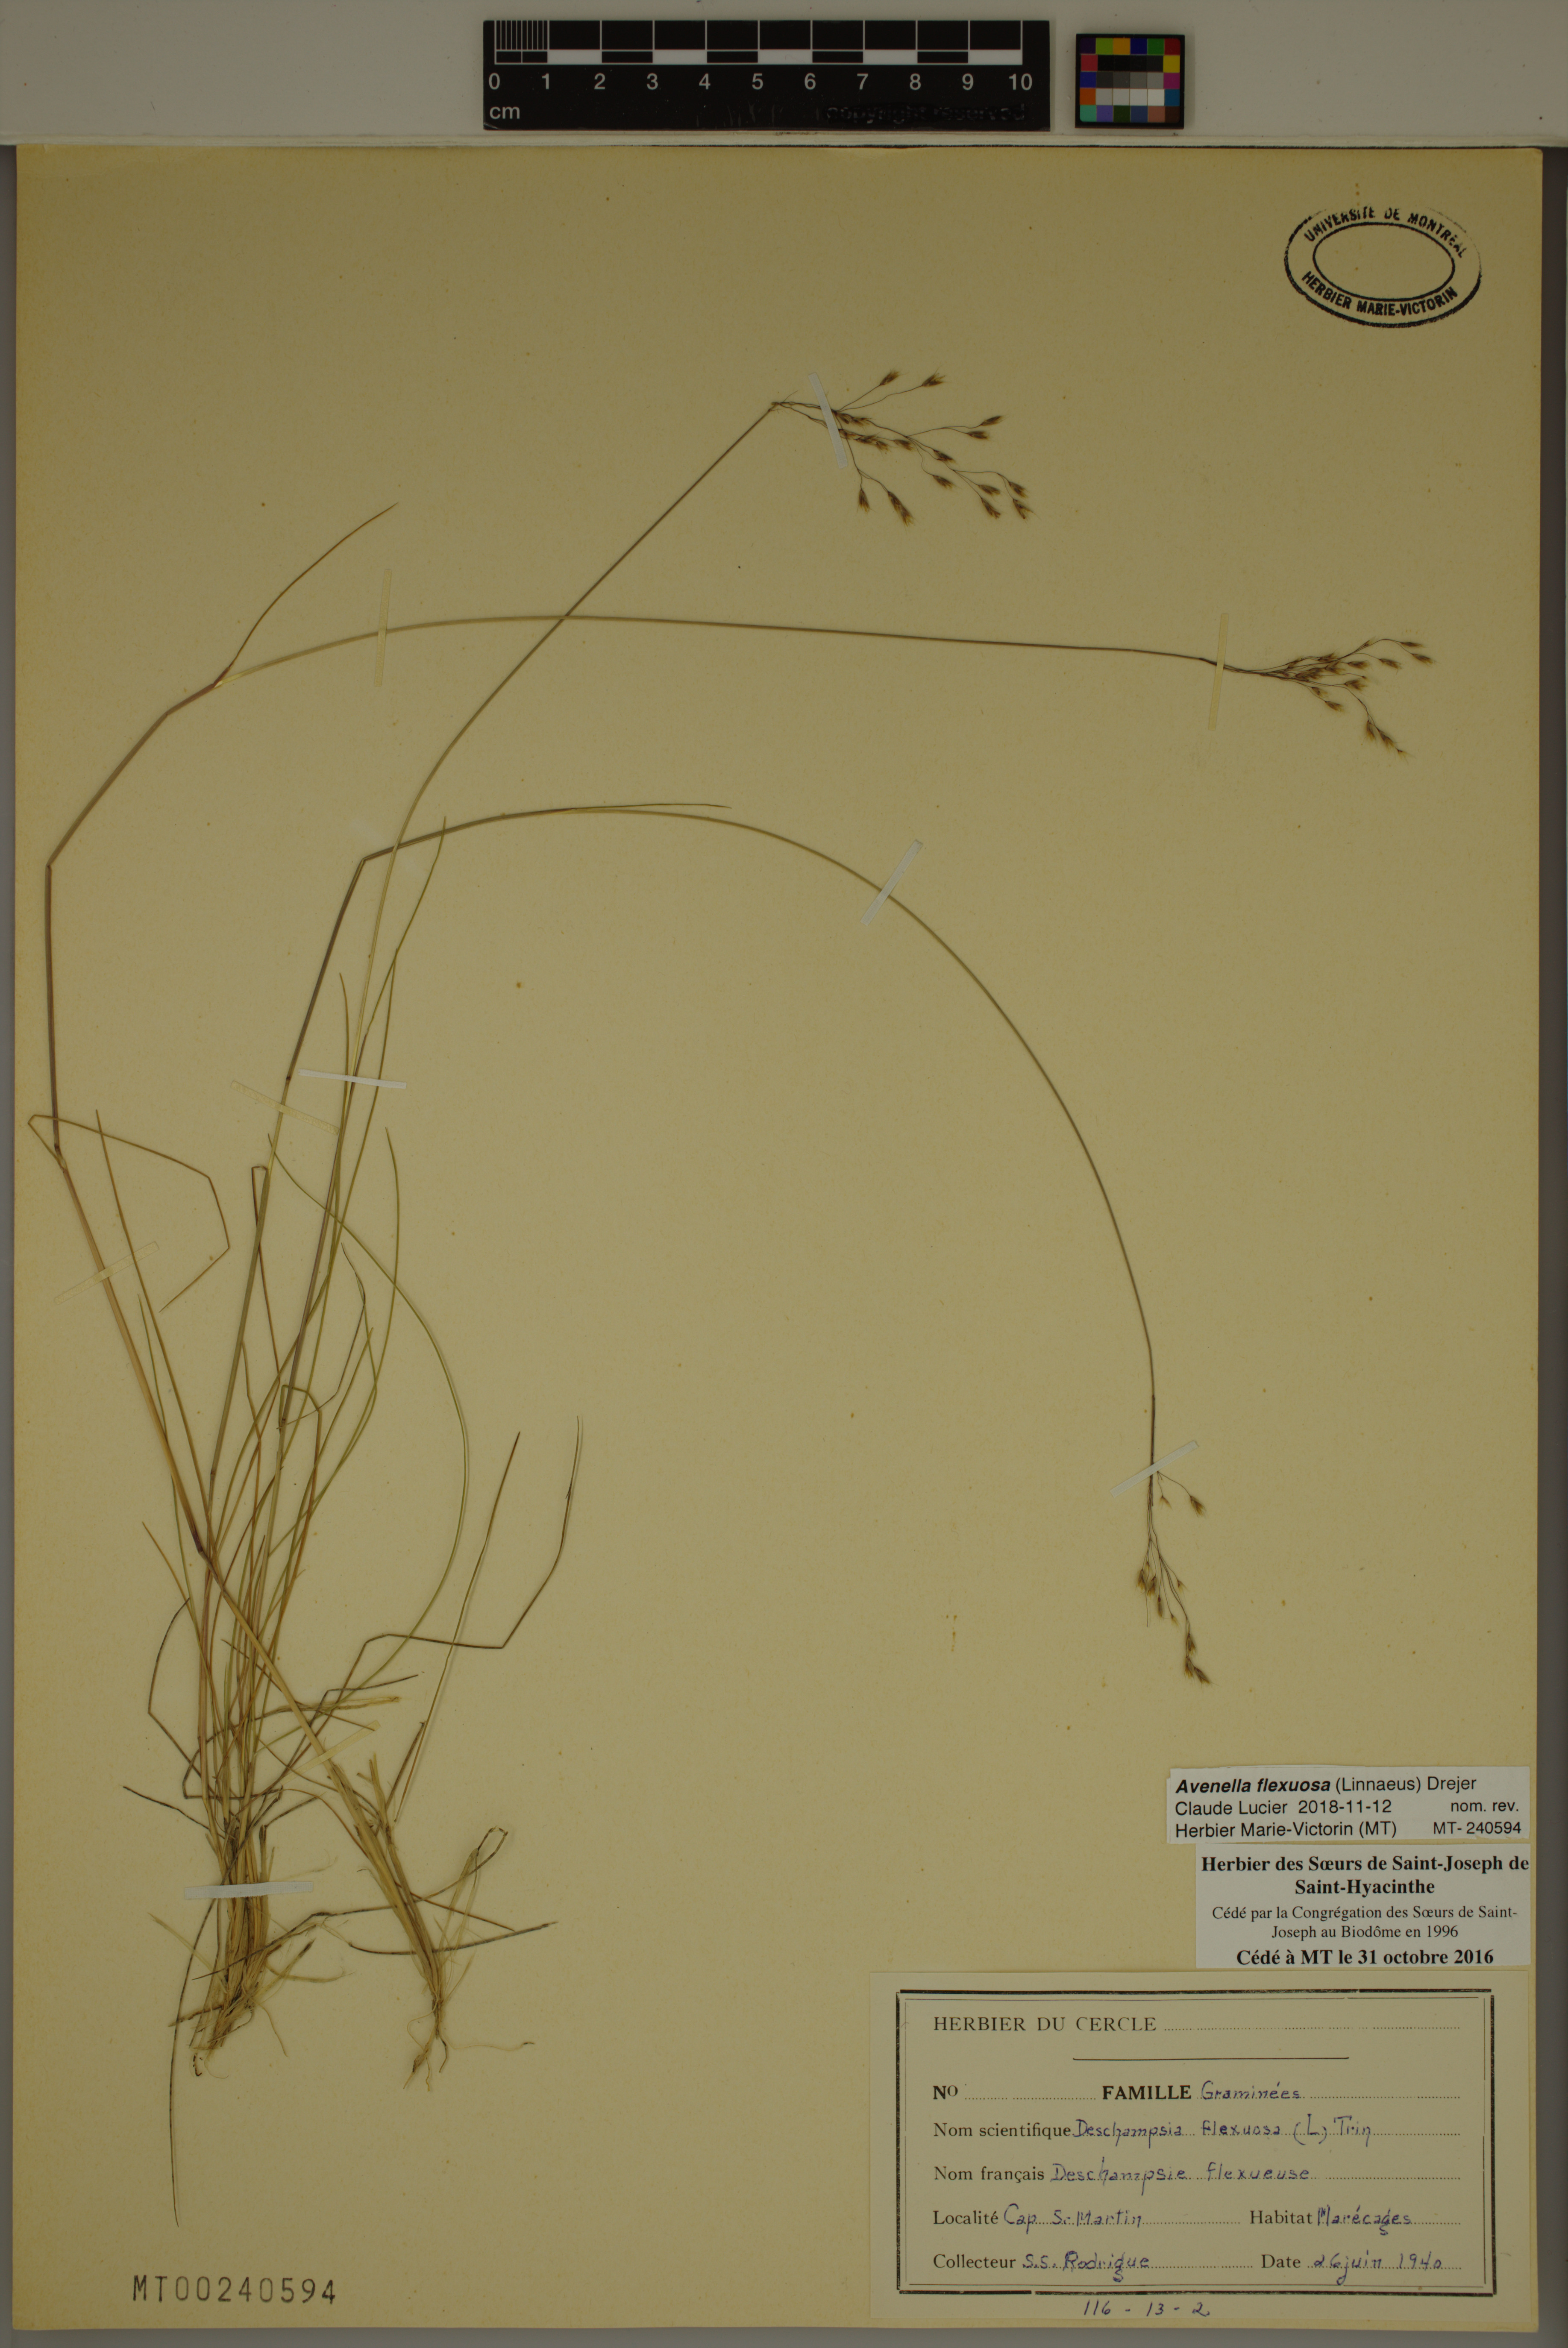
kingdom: Plantae
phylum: Tracheophyta
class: Liliopsida
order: Poales
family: Poaceae
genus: Avenella
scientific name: Avenella flexuosa
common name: Wavy hairgrass
